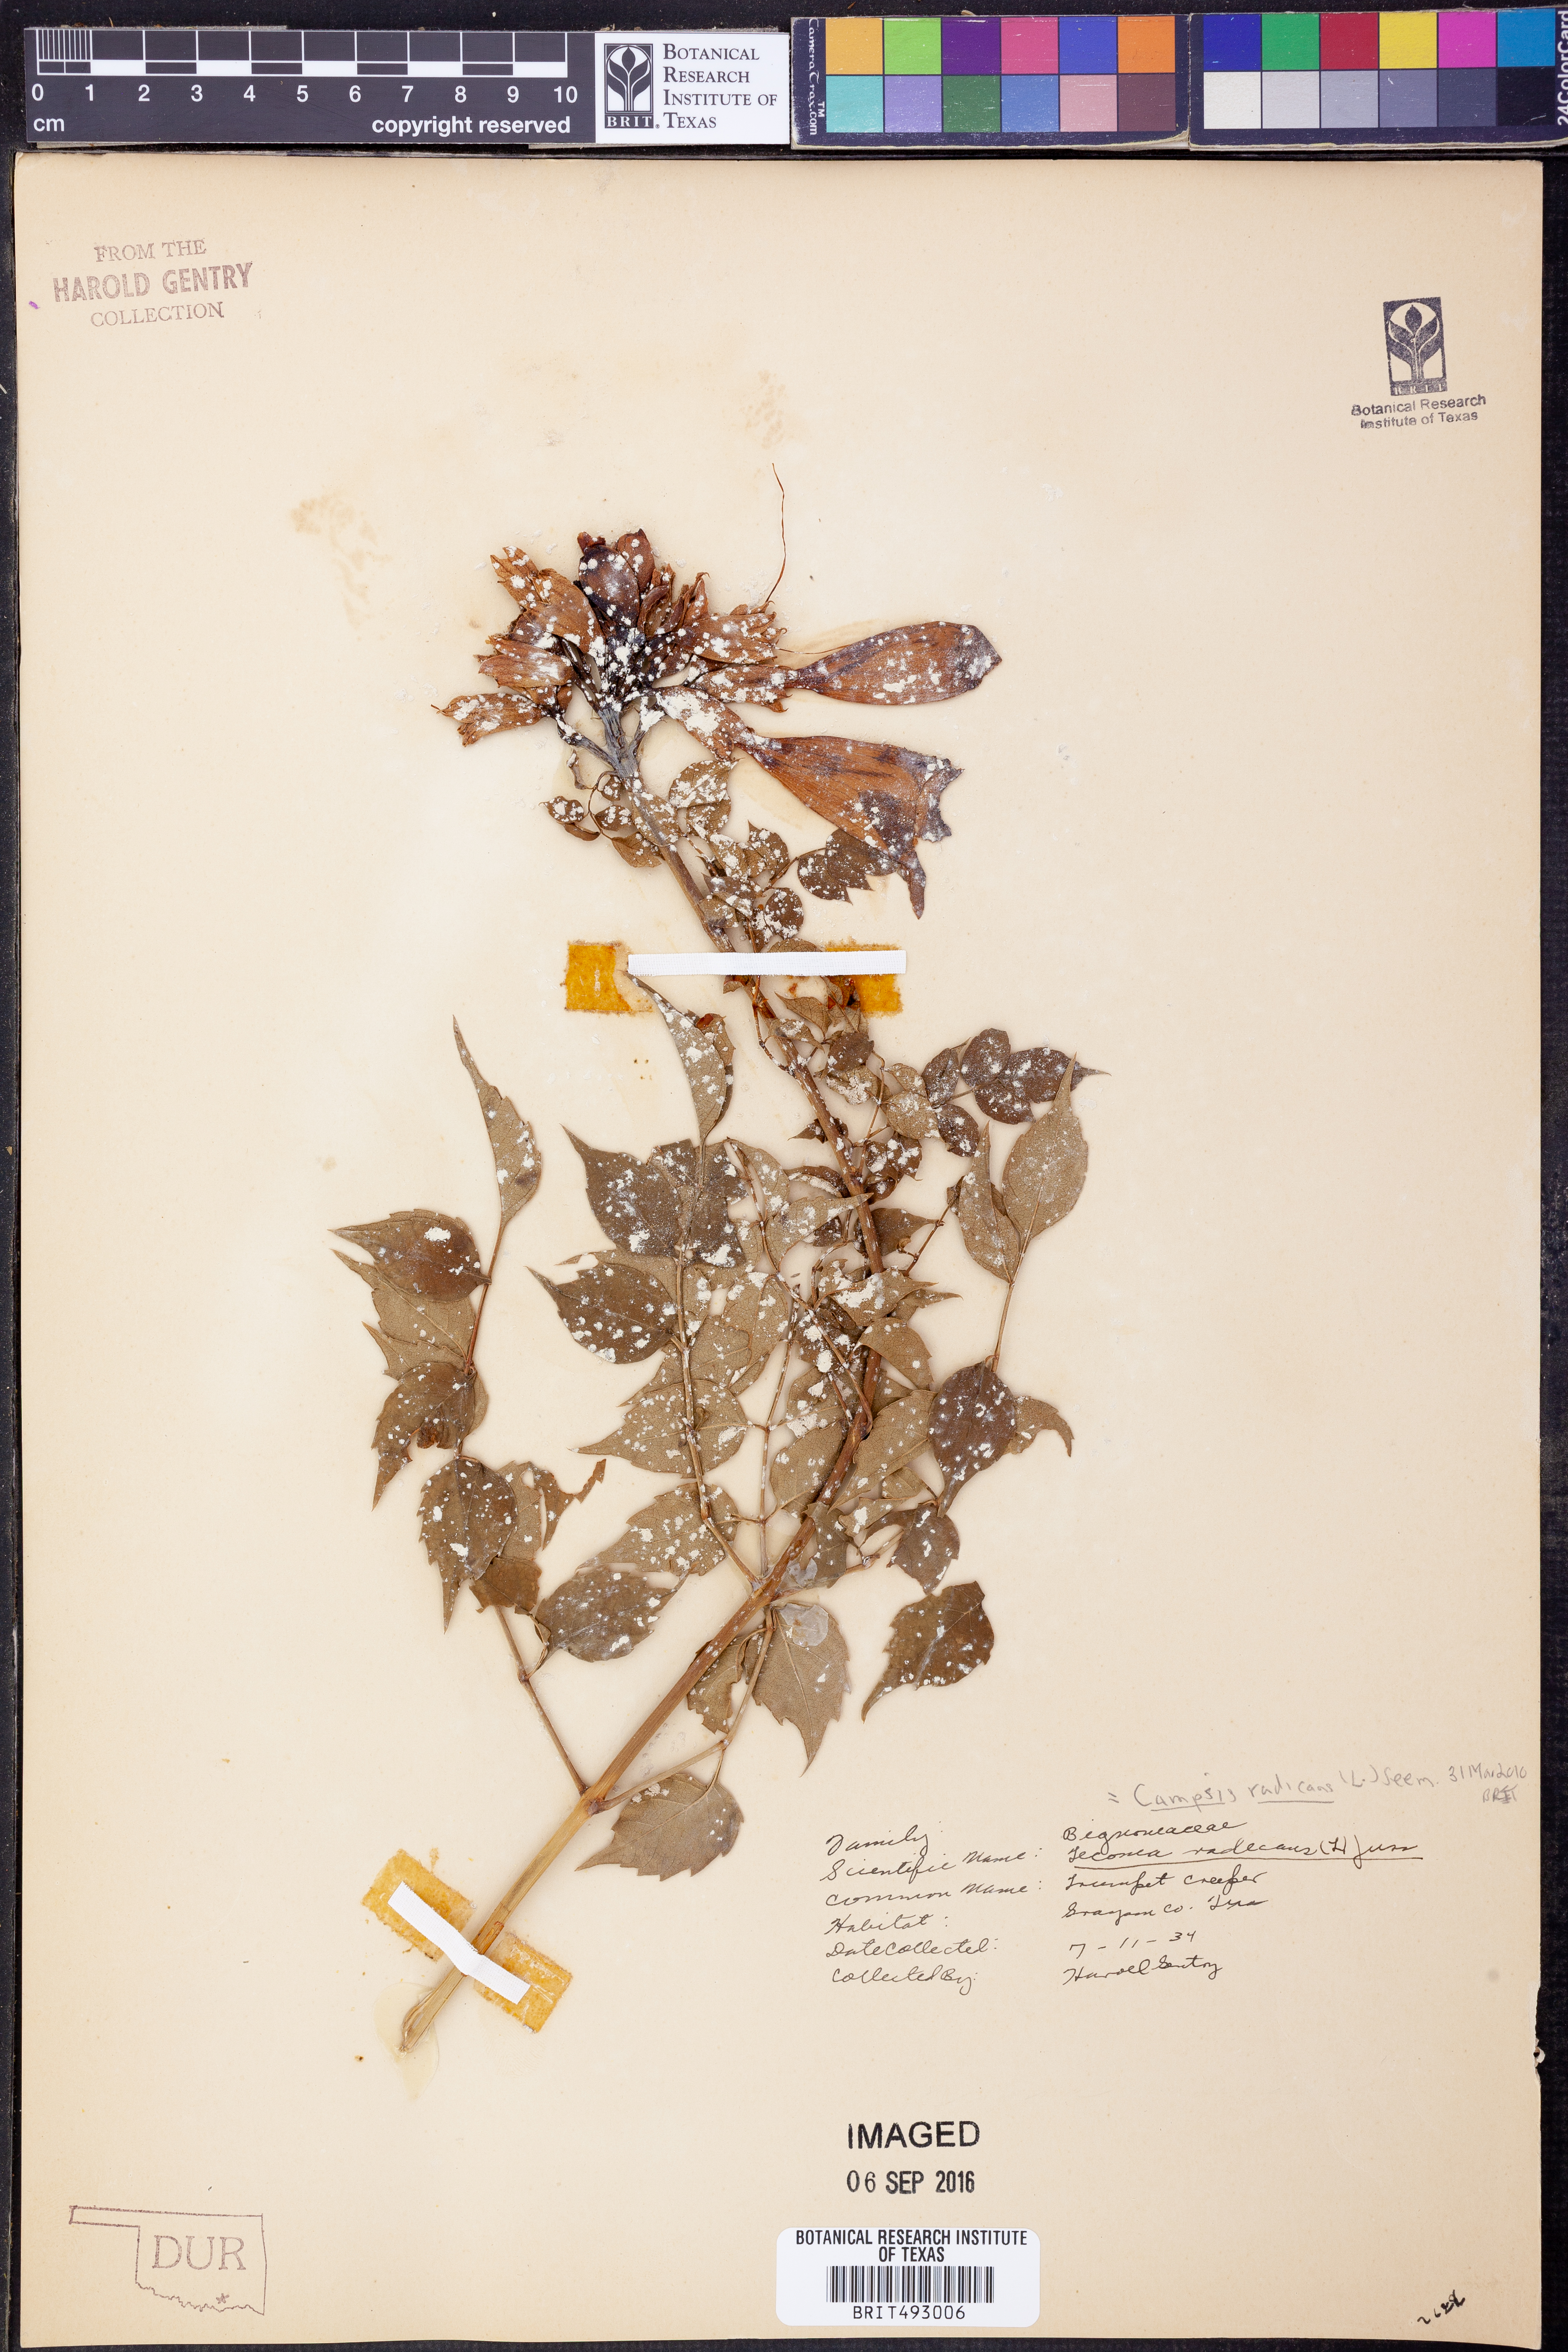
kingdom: Plantae
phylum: Tracheophyta
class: Magnoliopsida
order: Lamiales
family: Bignoniaceae
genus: Campsis
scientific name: Campsis radicans
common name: Trumpet-creeper
